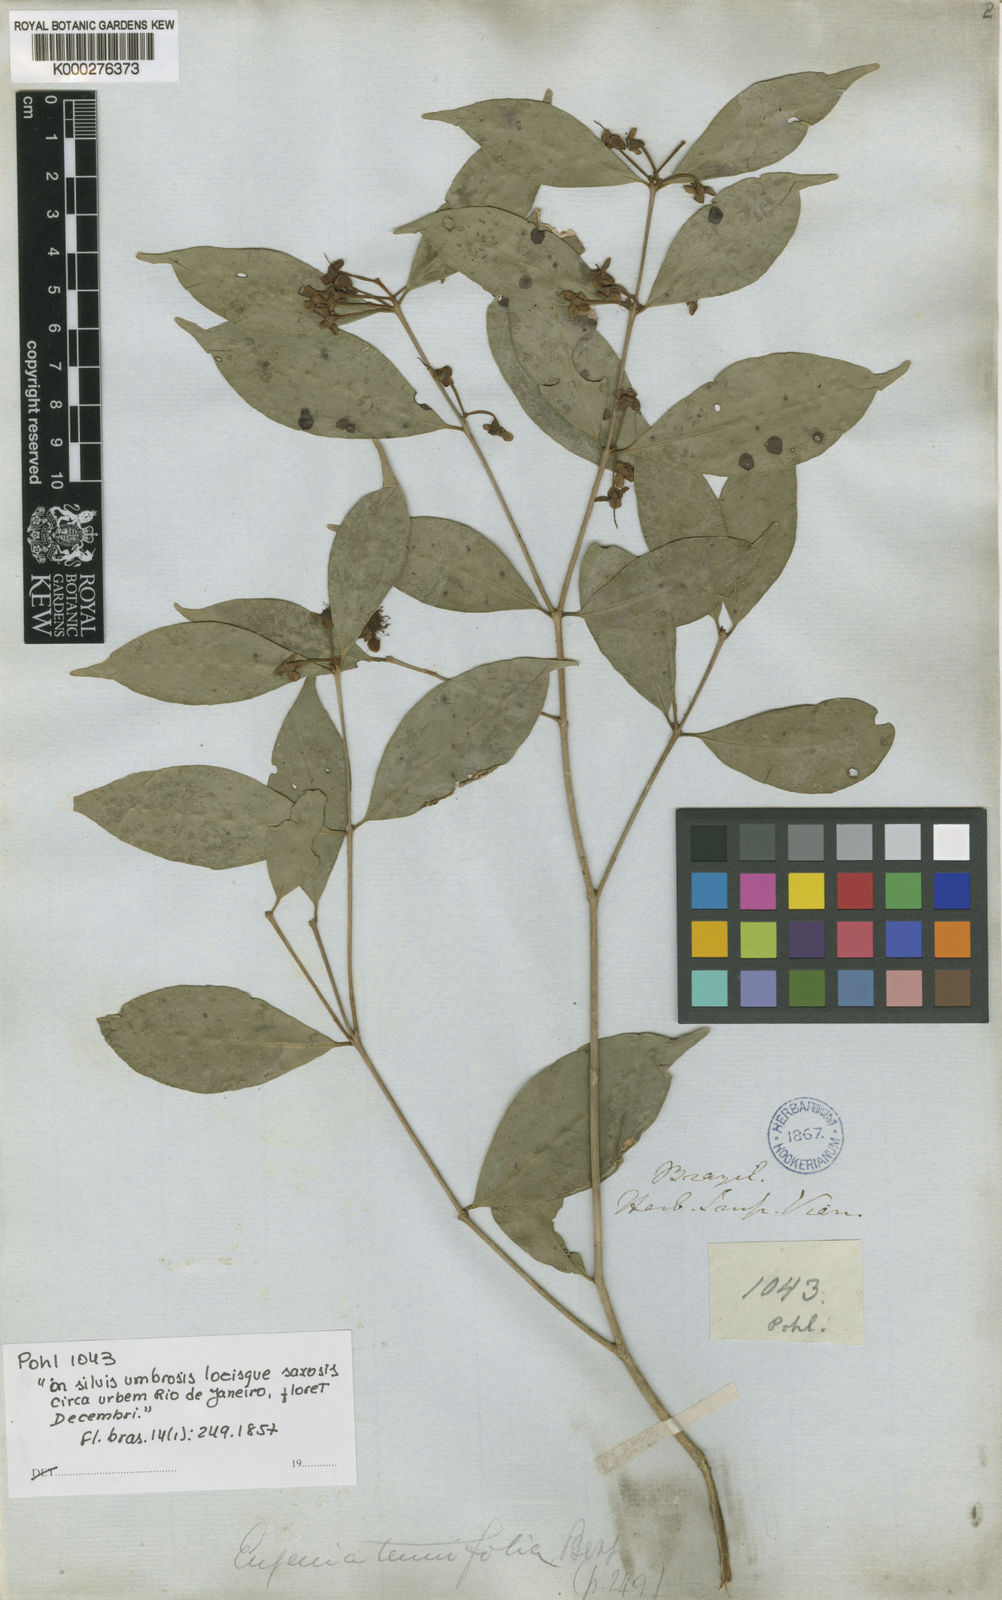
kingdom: Plantae
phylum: Tracheophyta
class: Magnoliopsida
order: Myrtales
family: Myrtaceae
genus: Eugenia
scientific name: Eugenia prasina
